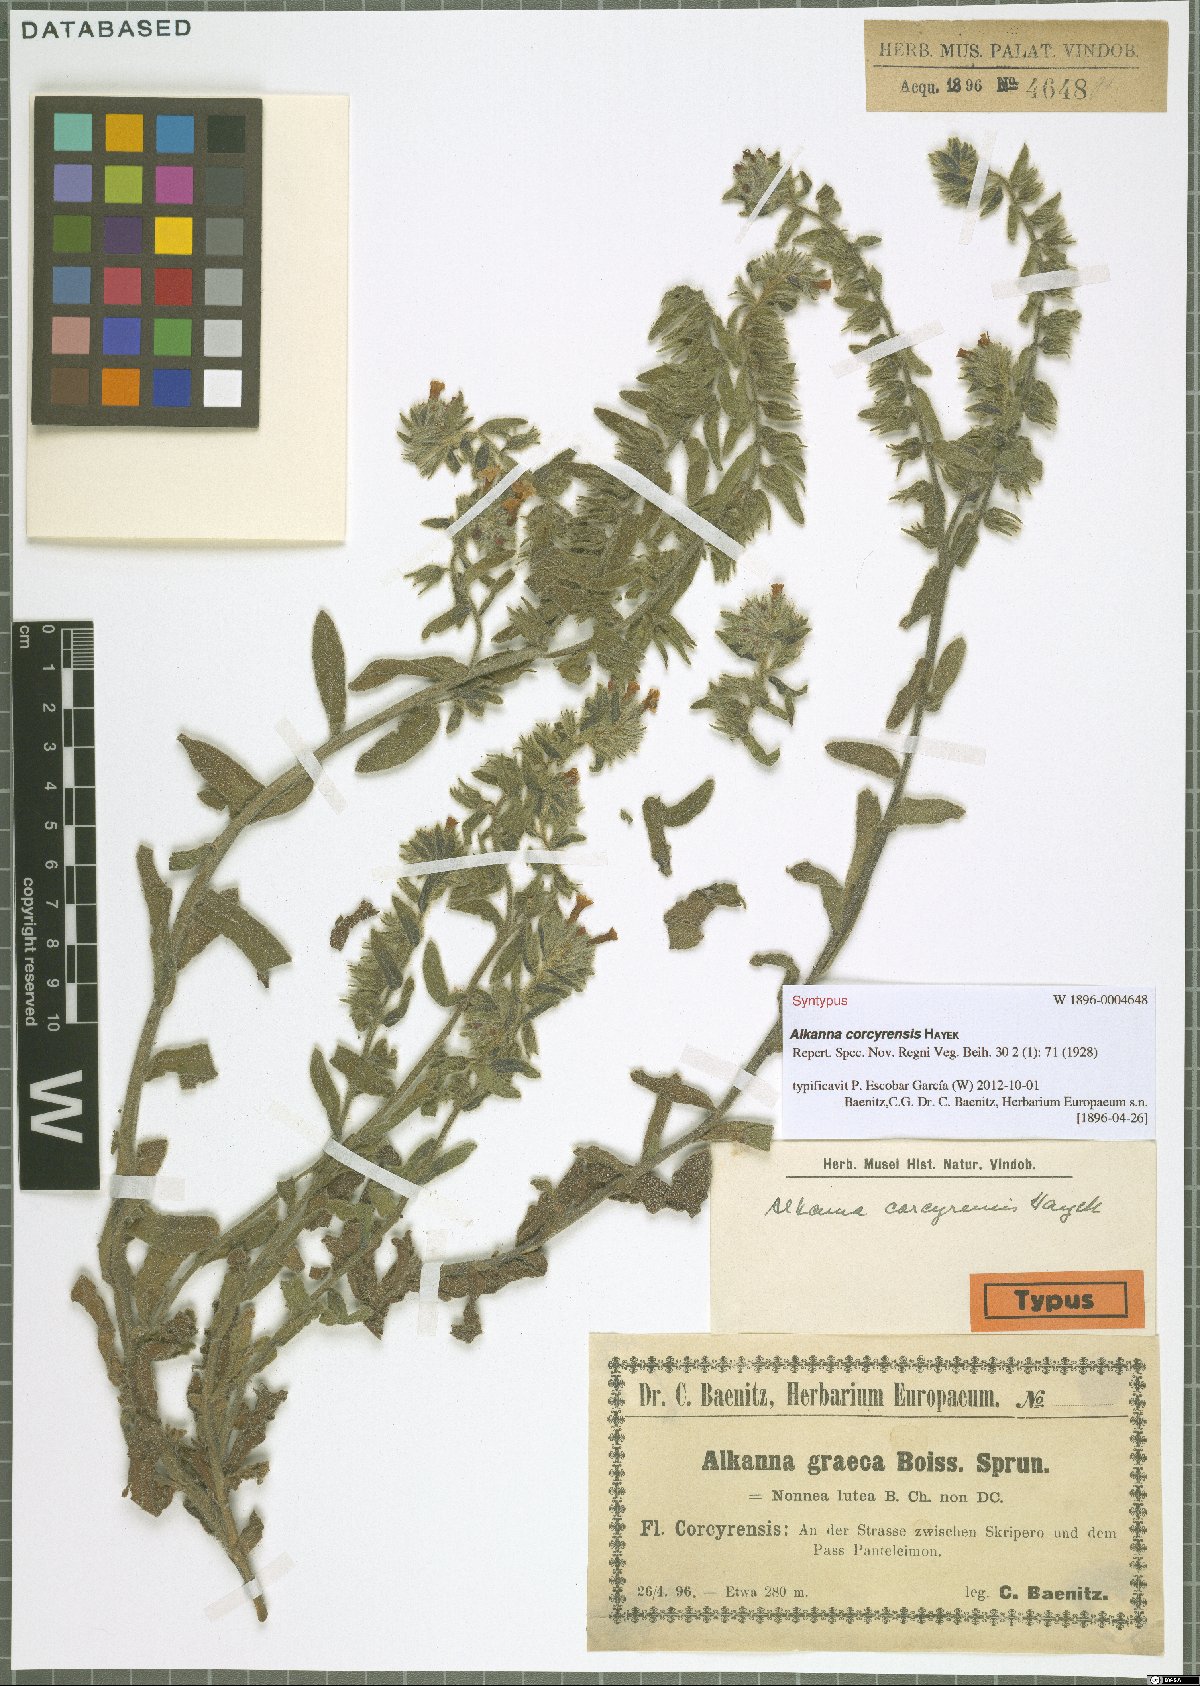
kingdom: Plantae
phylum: Tracheophyta
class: Magnoliopsida
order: Boraginales
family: Boraginaceae
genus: Alkanna
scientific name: Alkanna corcyrensis
